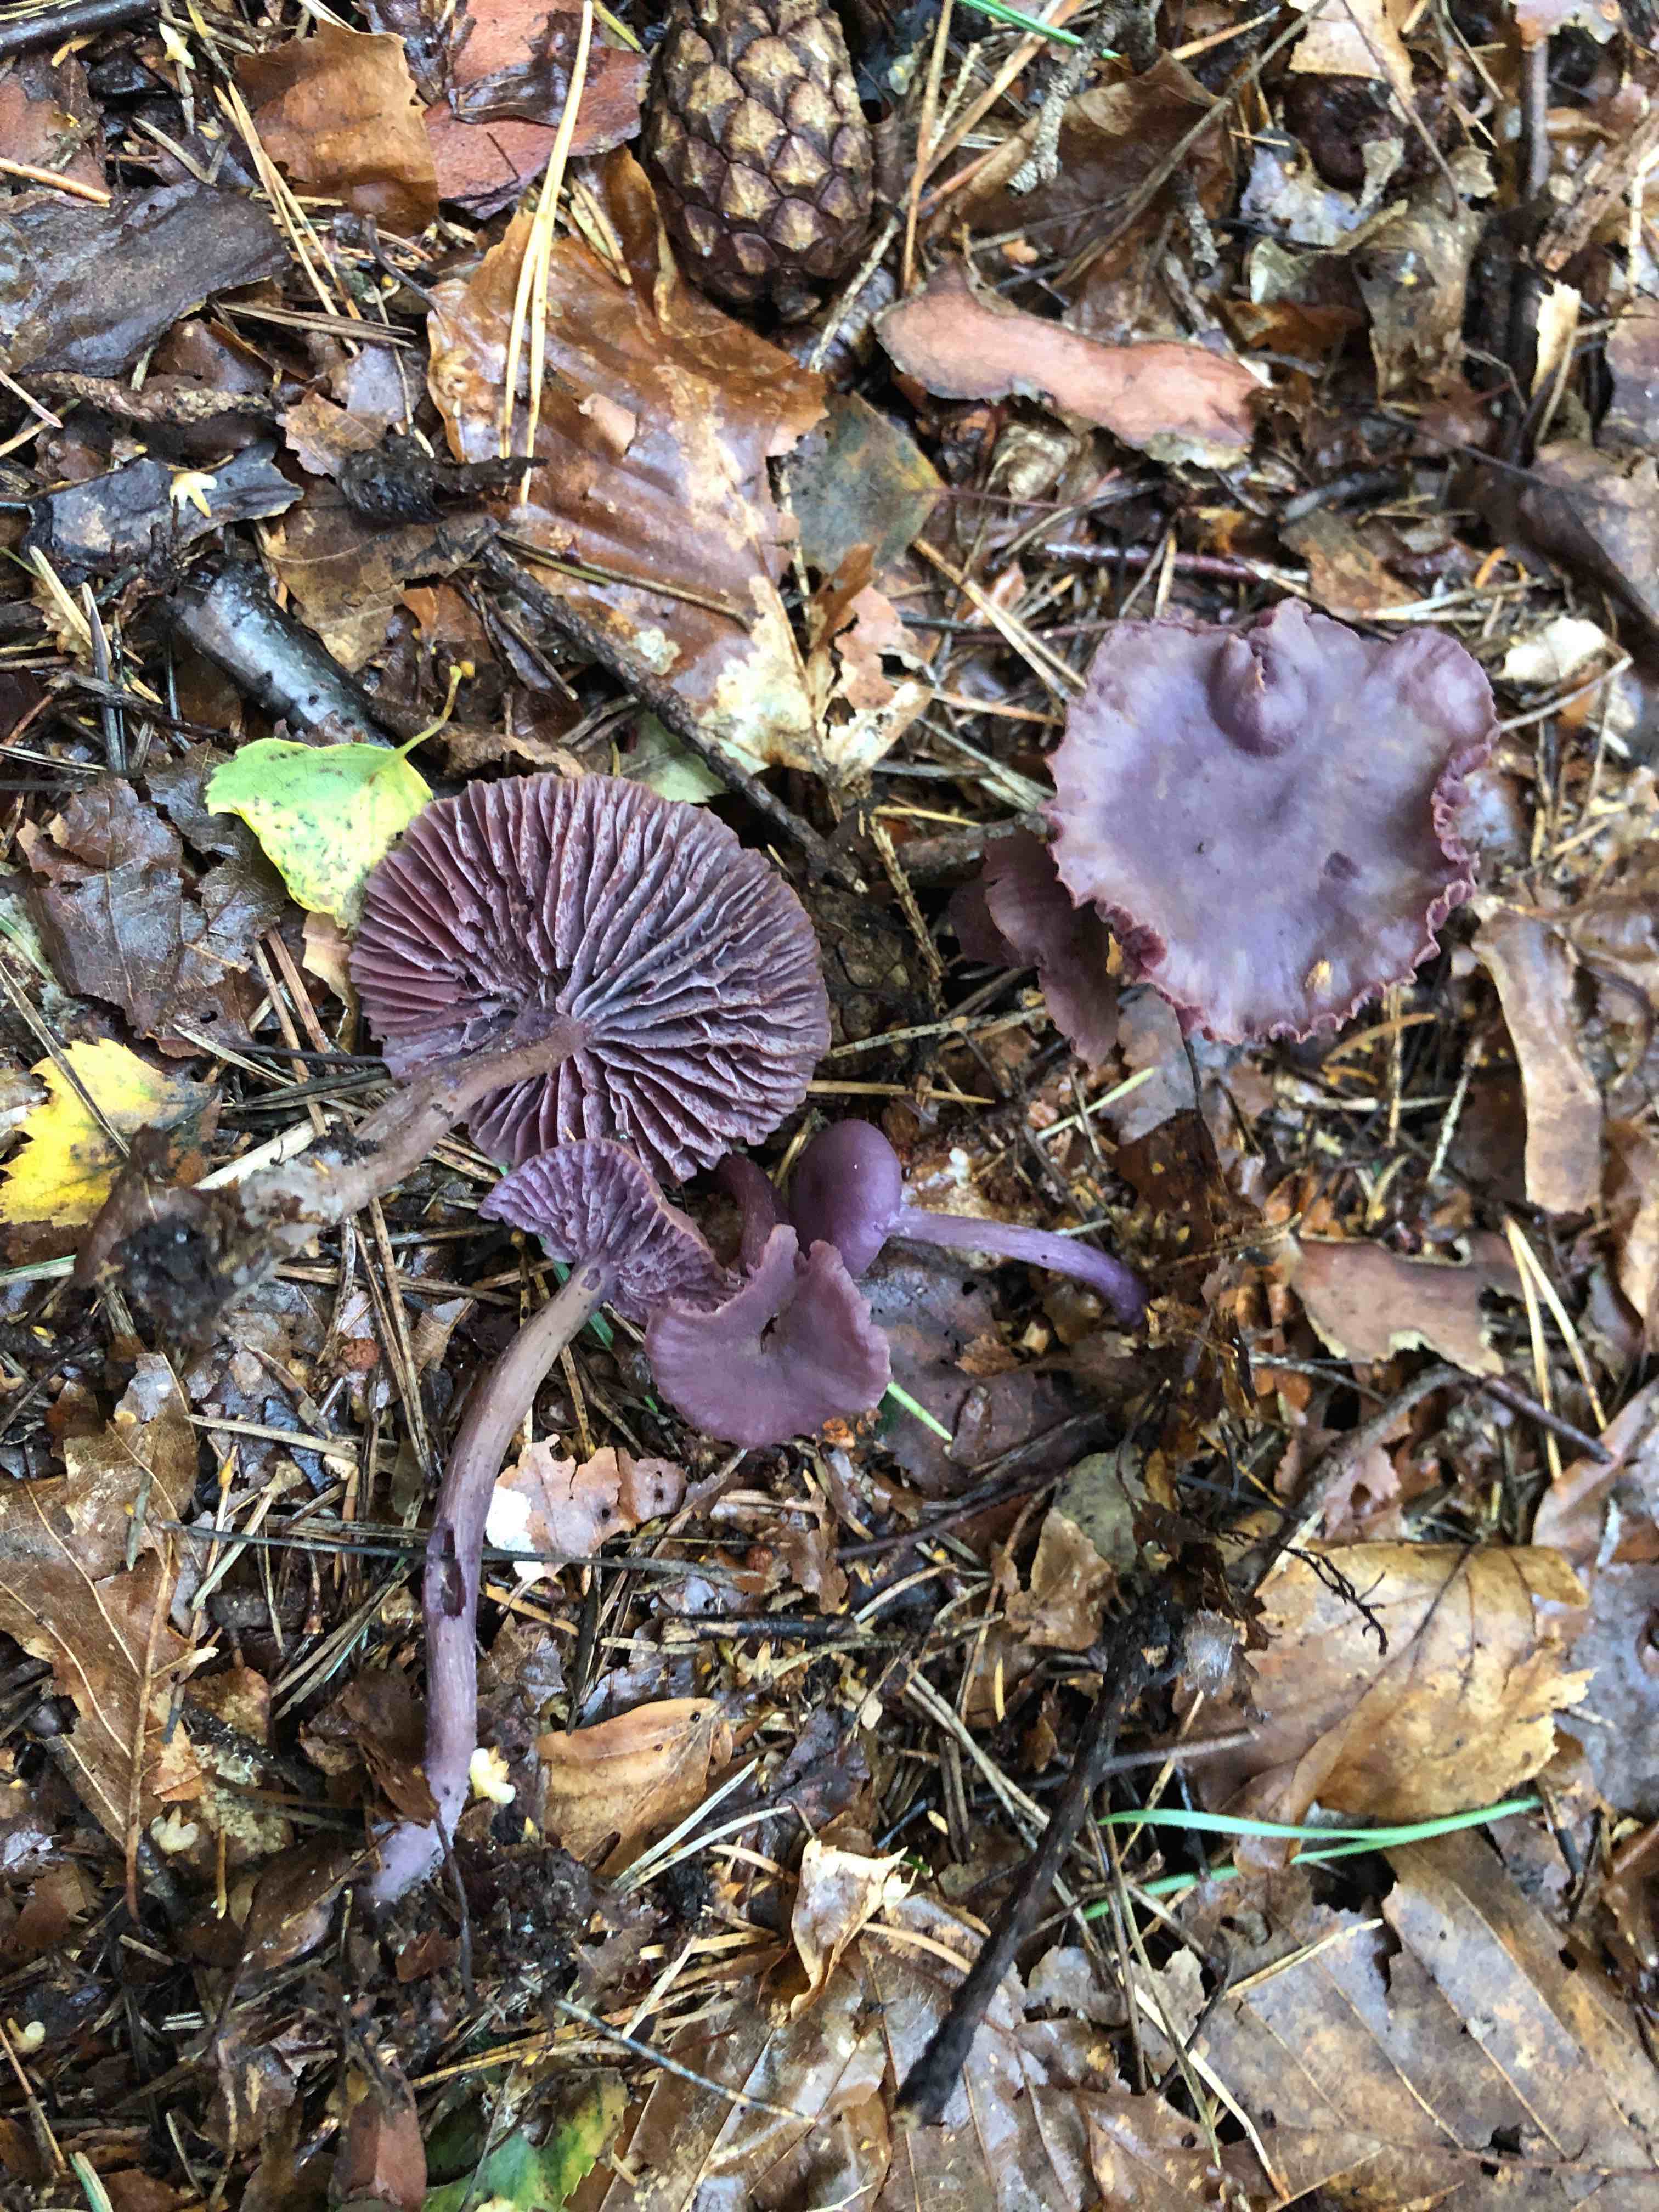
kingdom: Fungi
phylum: Basidiomycota
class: Agaricomycetes
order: Agaricales
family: Hydnangiaceae
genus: Laccaria
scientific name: Laccaria amethystina
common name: violet ametysthat
